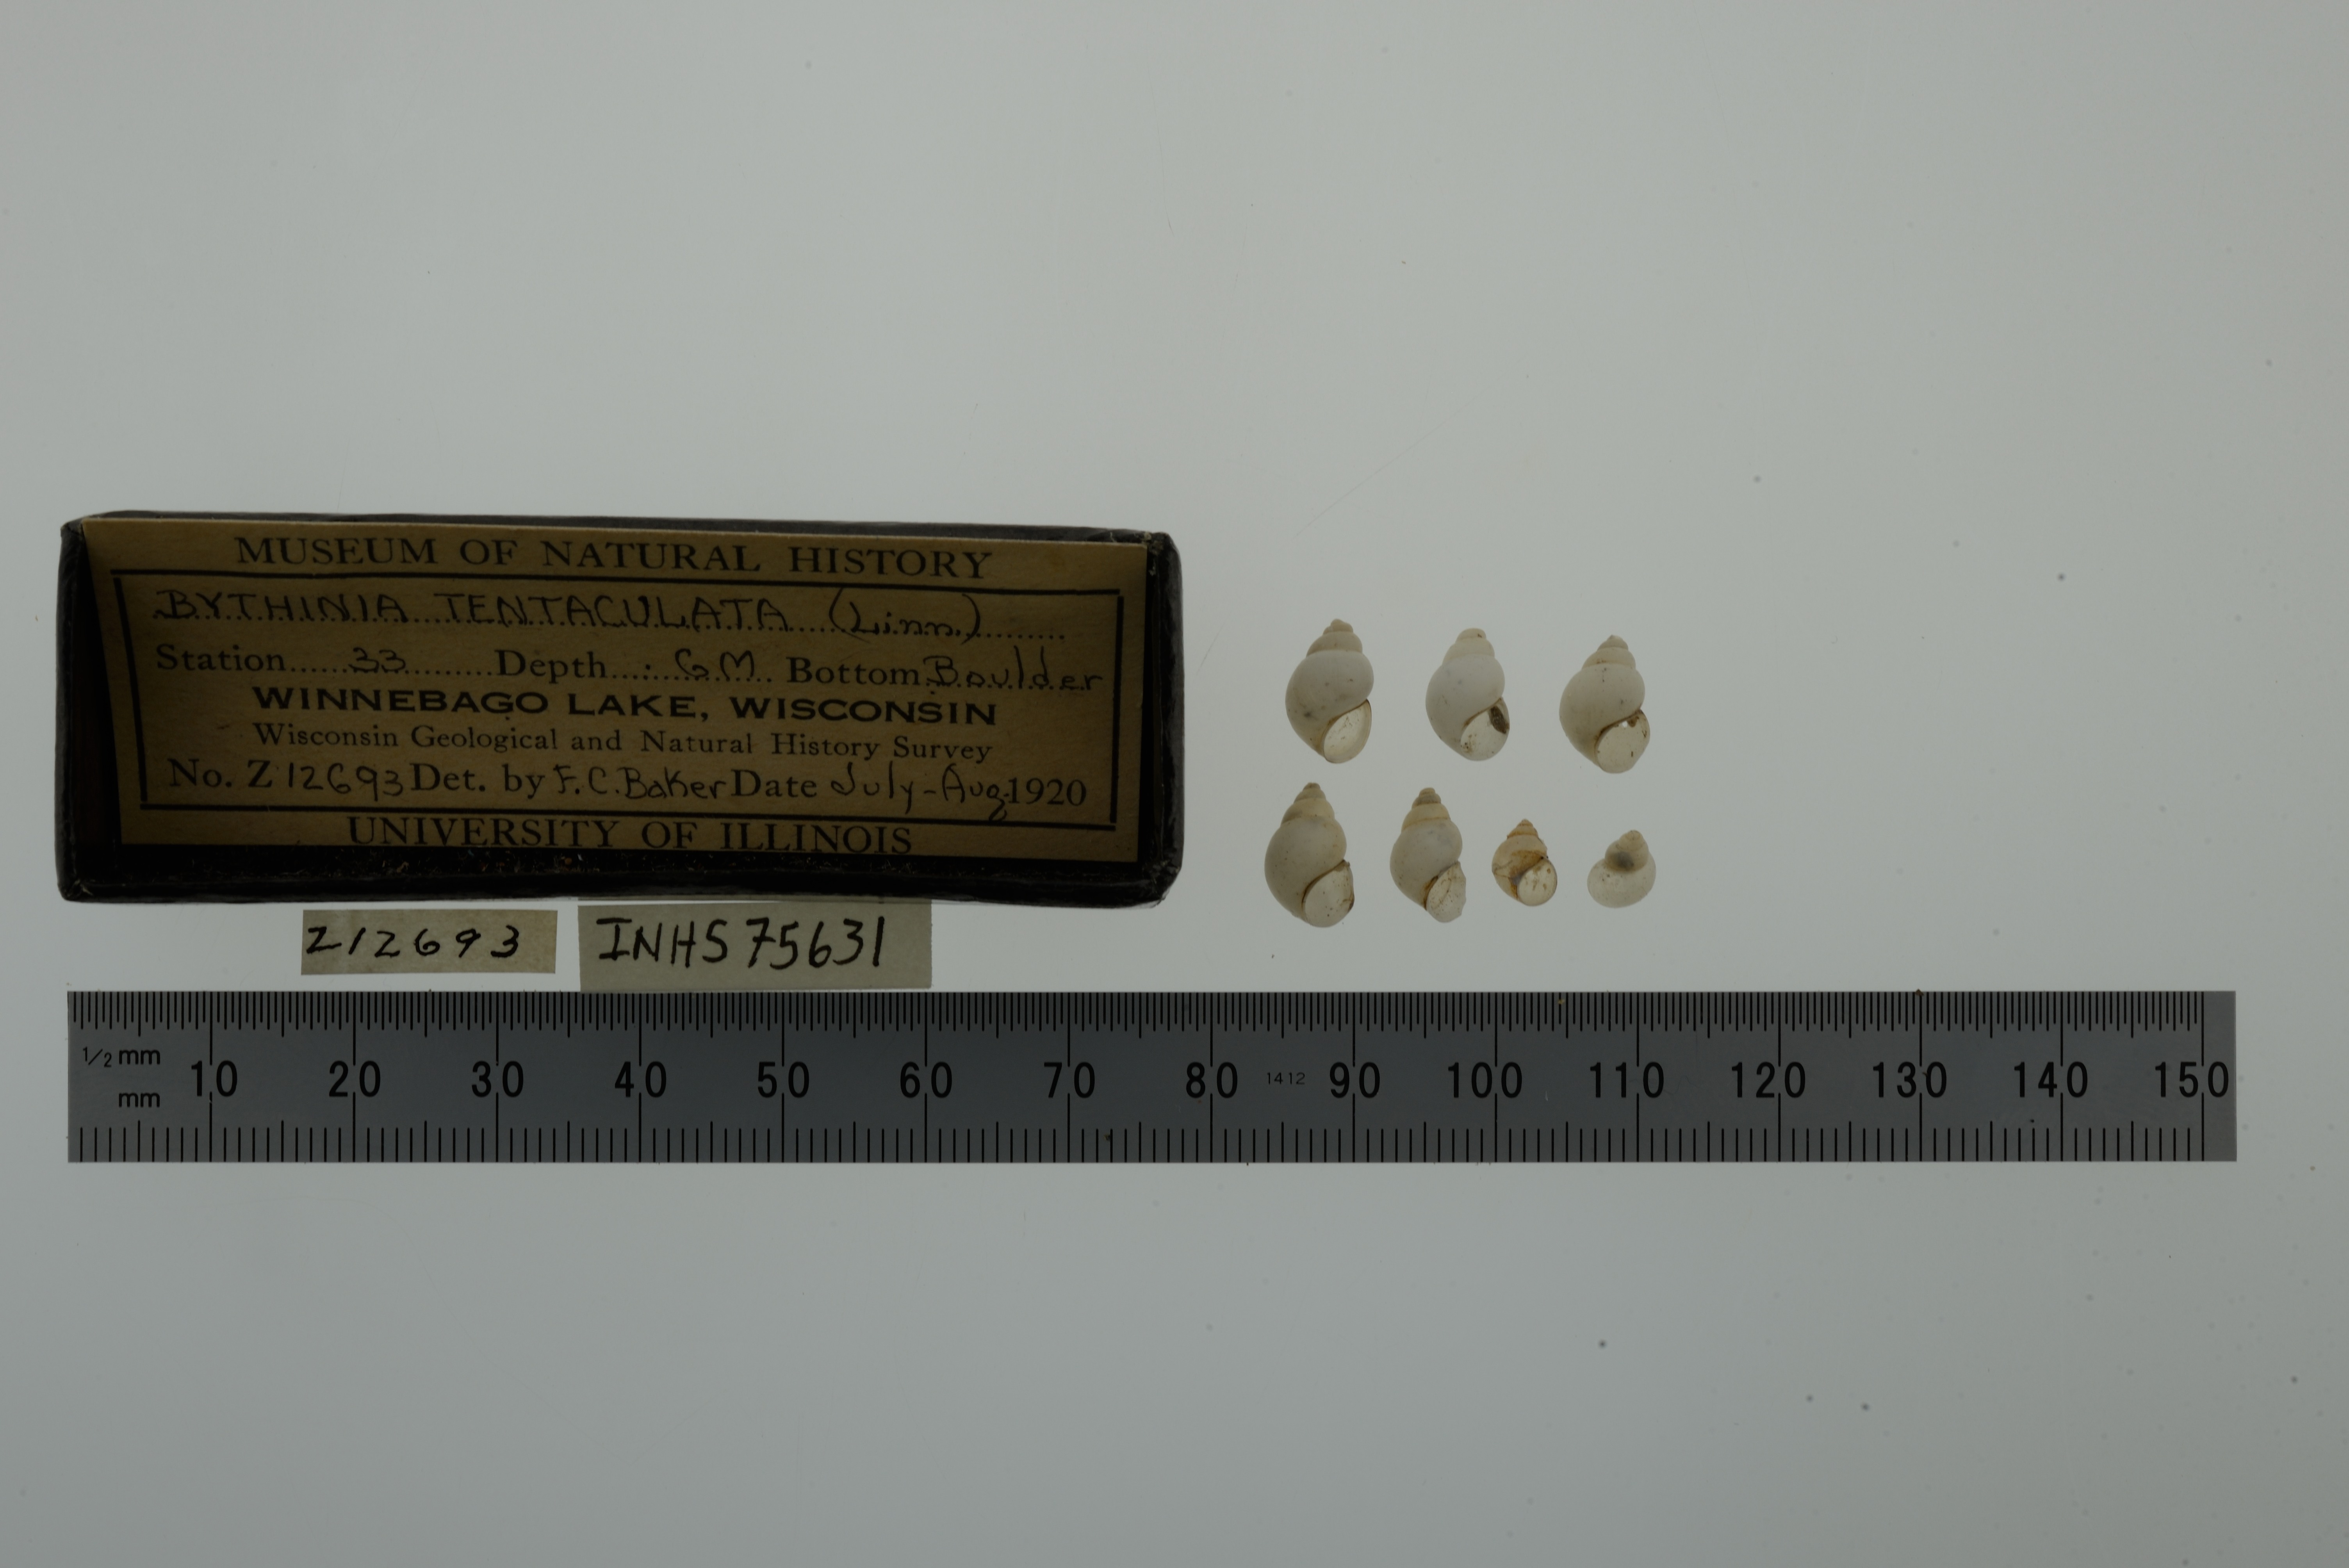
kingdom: Animalia
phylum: Mollusca
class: Gastropoda
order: Littorinimorpha
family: Bithyniidae
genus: Bithynia
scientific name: Bithynia tentaculata
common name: Common bithynia
